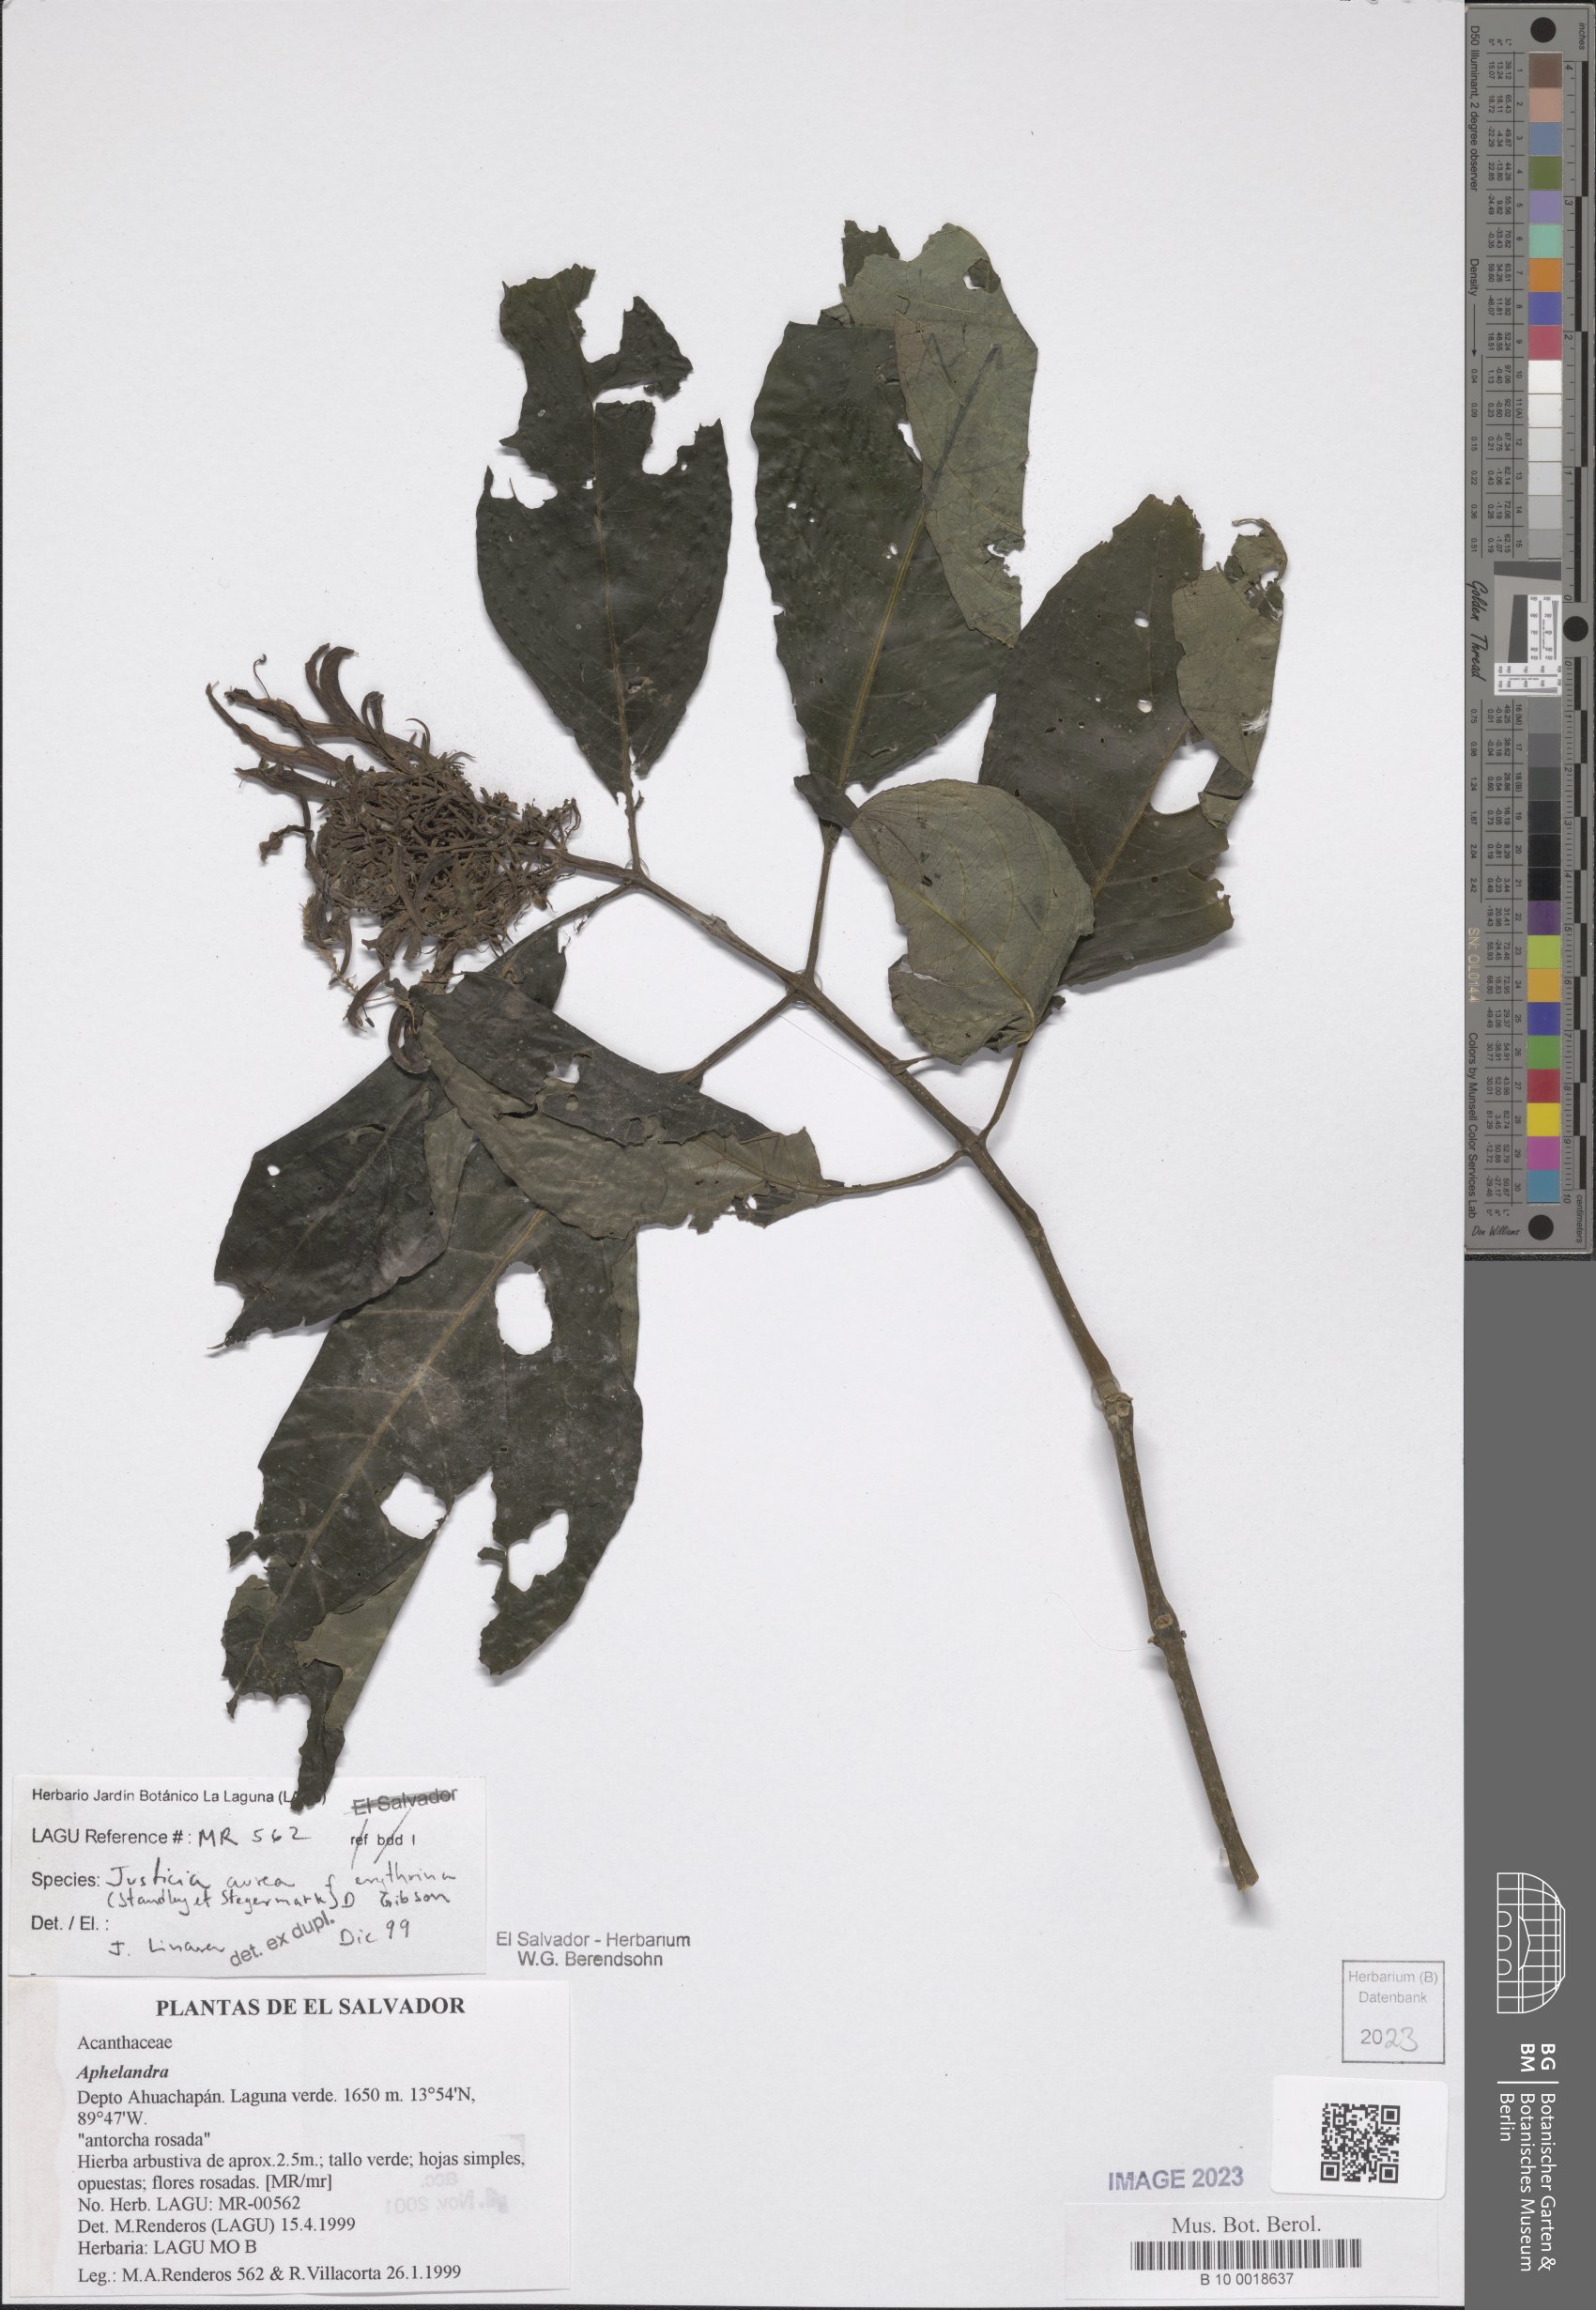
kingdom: Plantae
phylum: Tracheophyta
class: Magnoliopsida
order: Lamiales
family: Acanthaceae
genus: Justicia
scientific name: Justicia aurea
